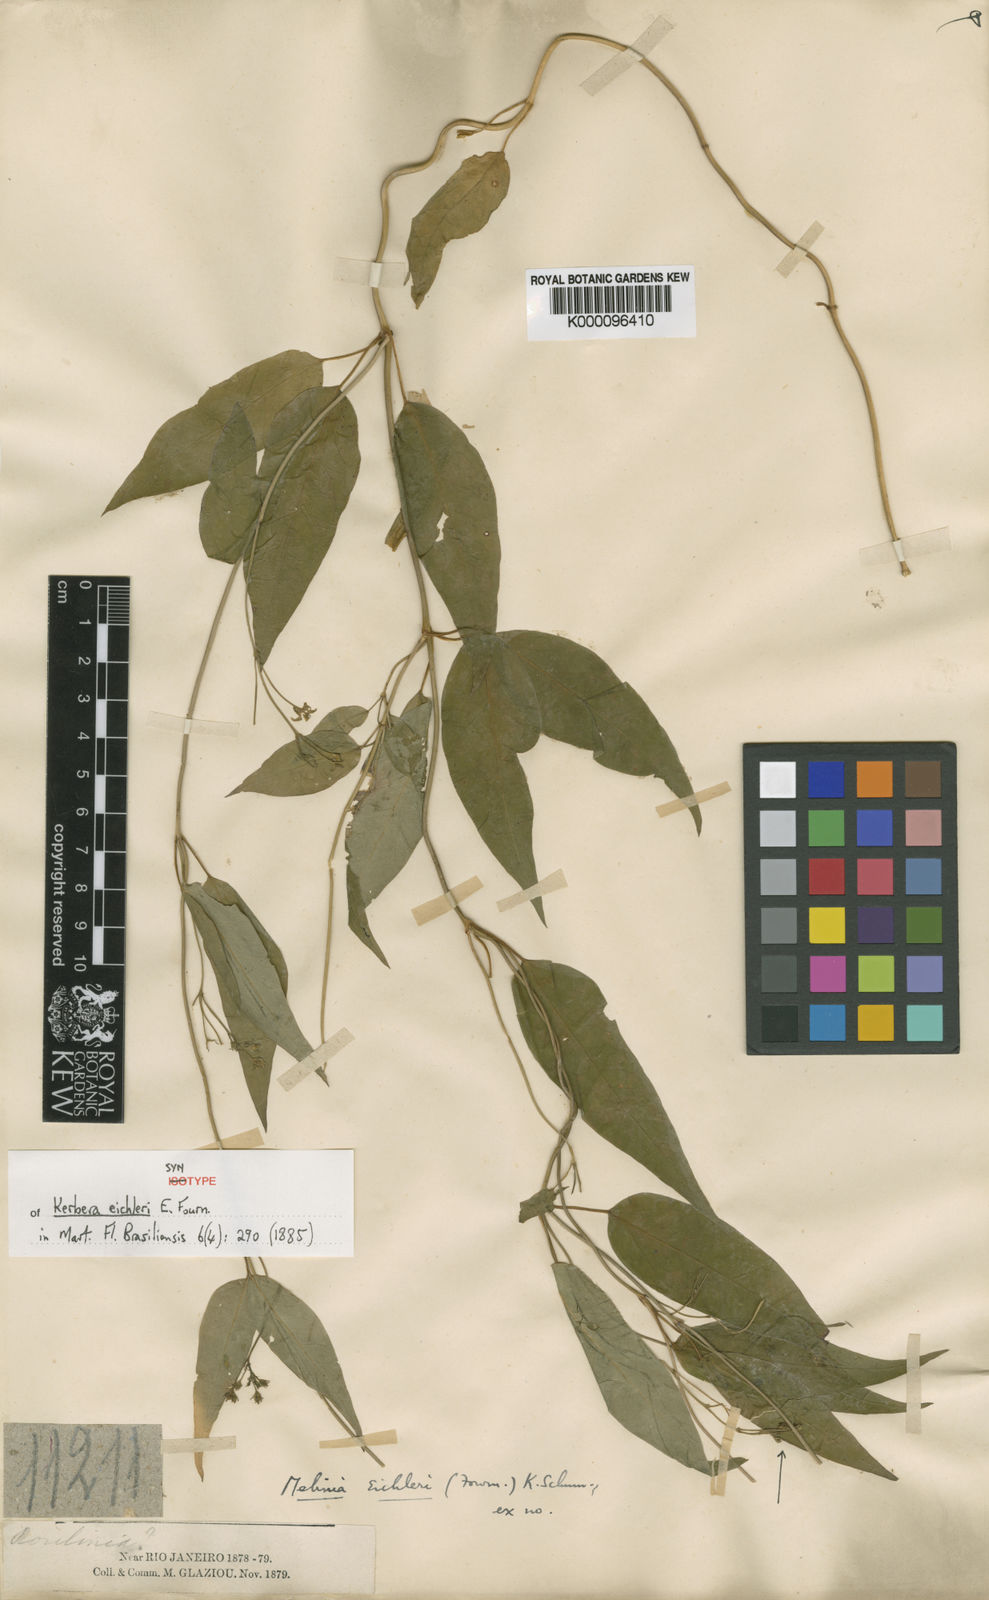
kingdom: Plantae
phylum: Tracheophyta
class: Magnoliopsida
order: Gentianales
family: Apocynaceae
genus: Kerbera
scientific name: Kerbera eichleri
